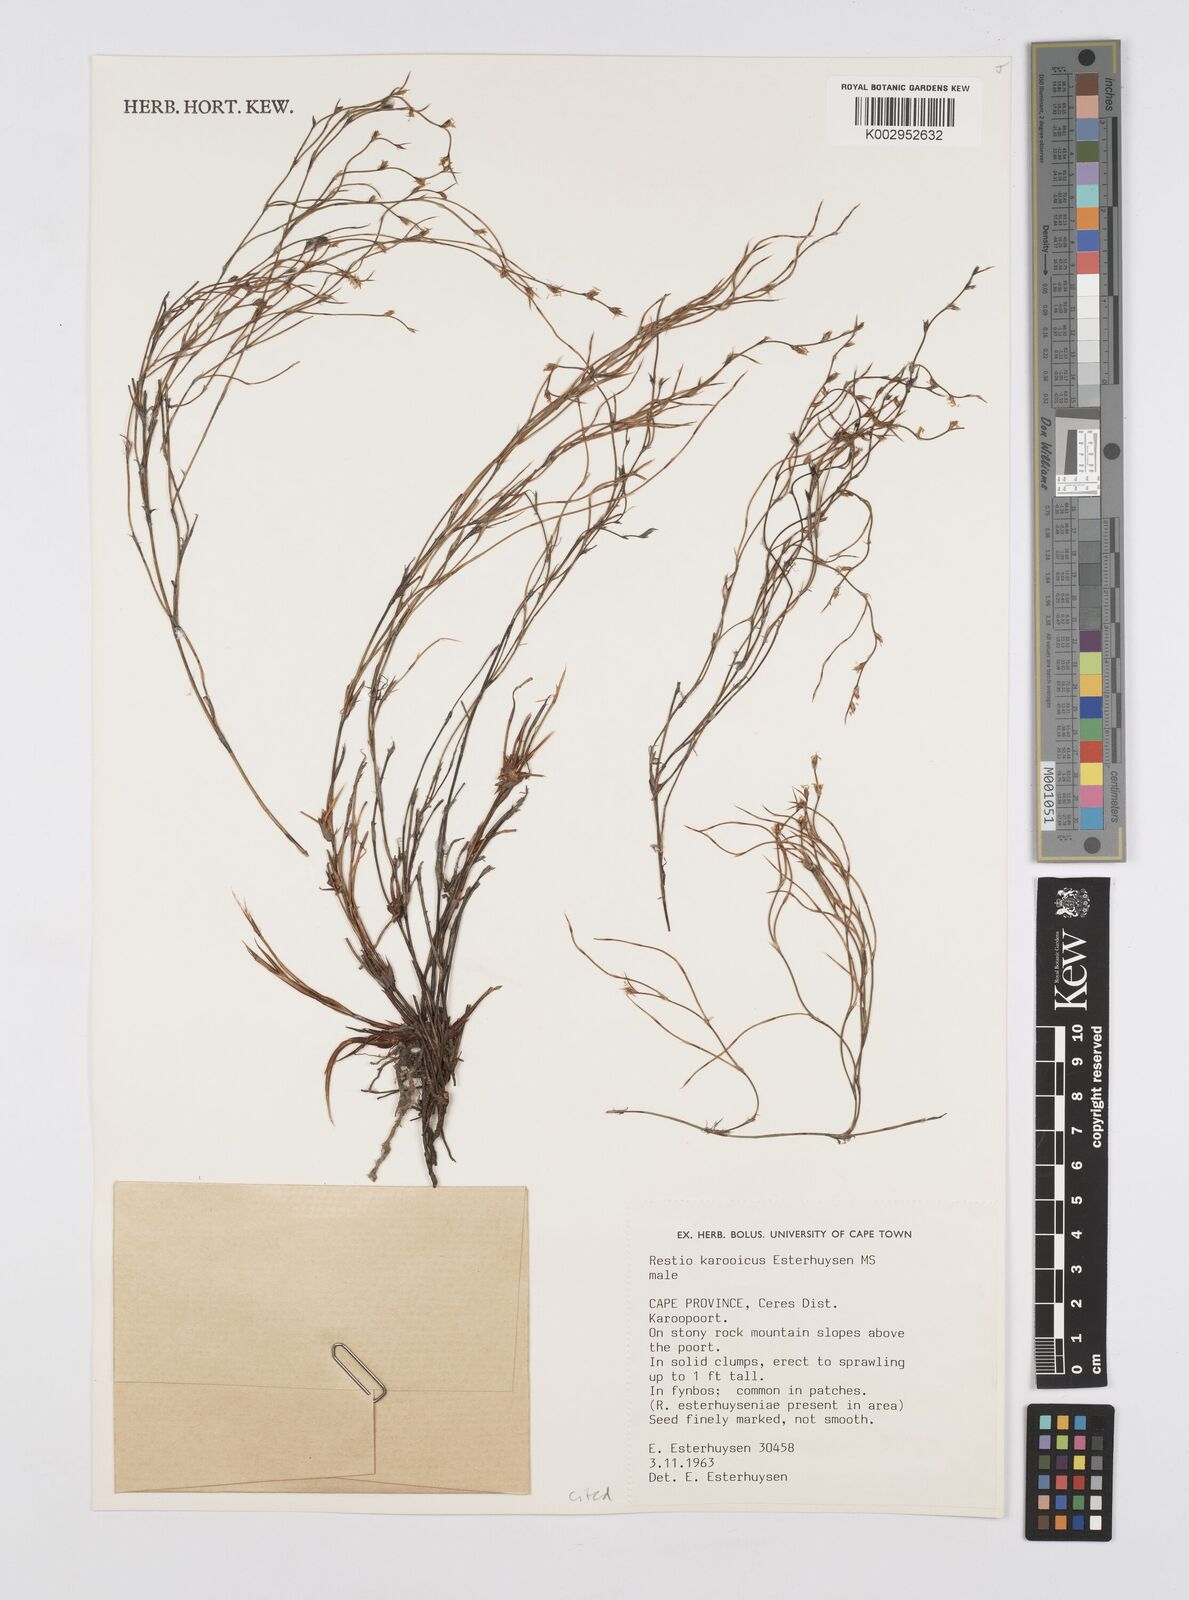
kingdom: Plantae
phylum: Tracheophyta
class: Liliopsida
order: Poales
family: Restionaceae
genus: Restio
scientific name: Restio karooicus
